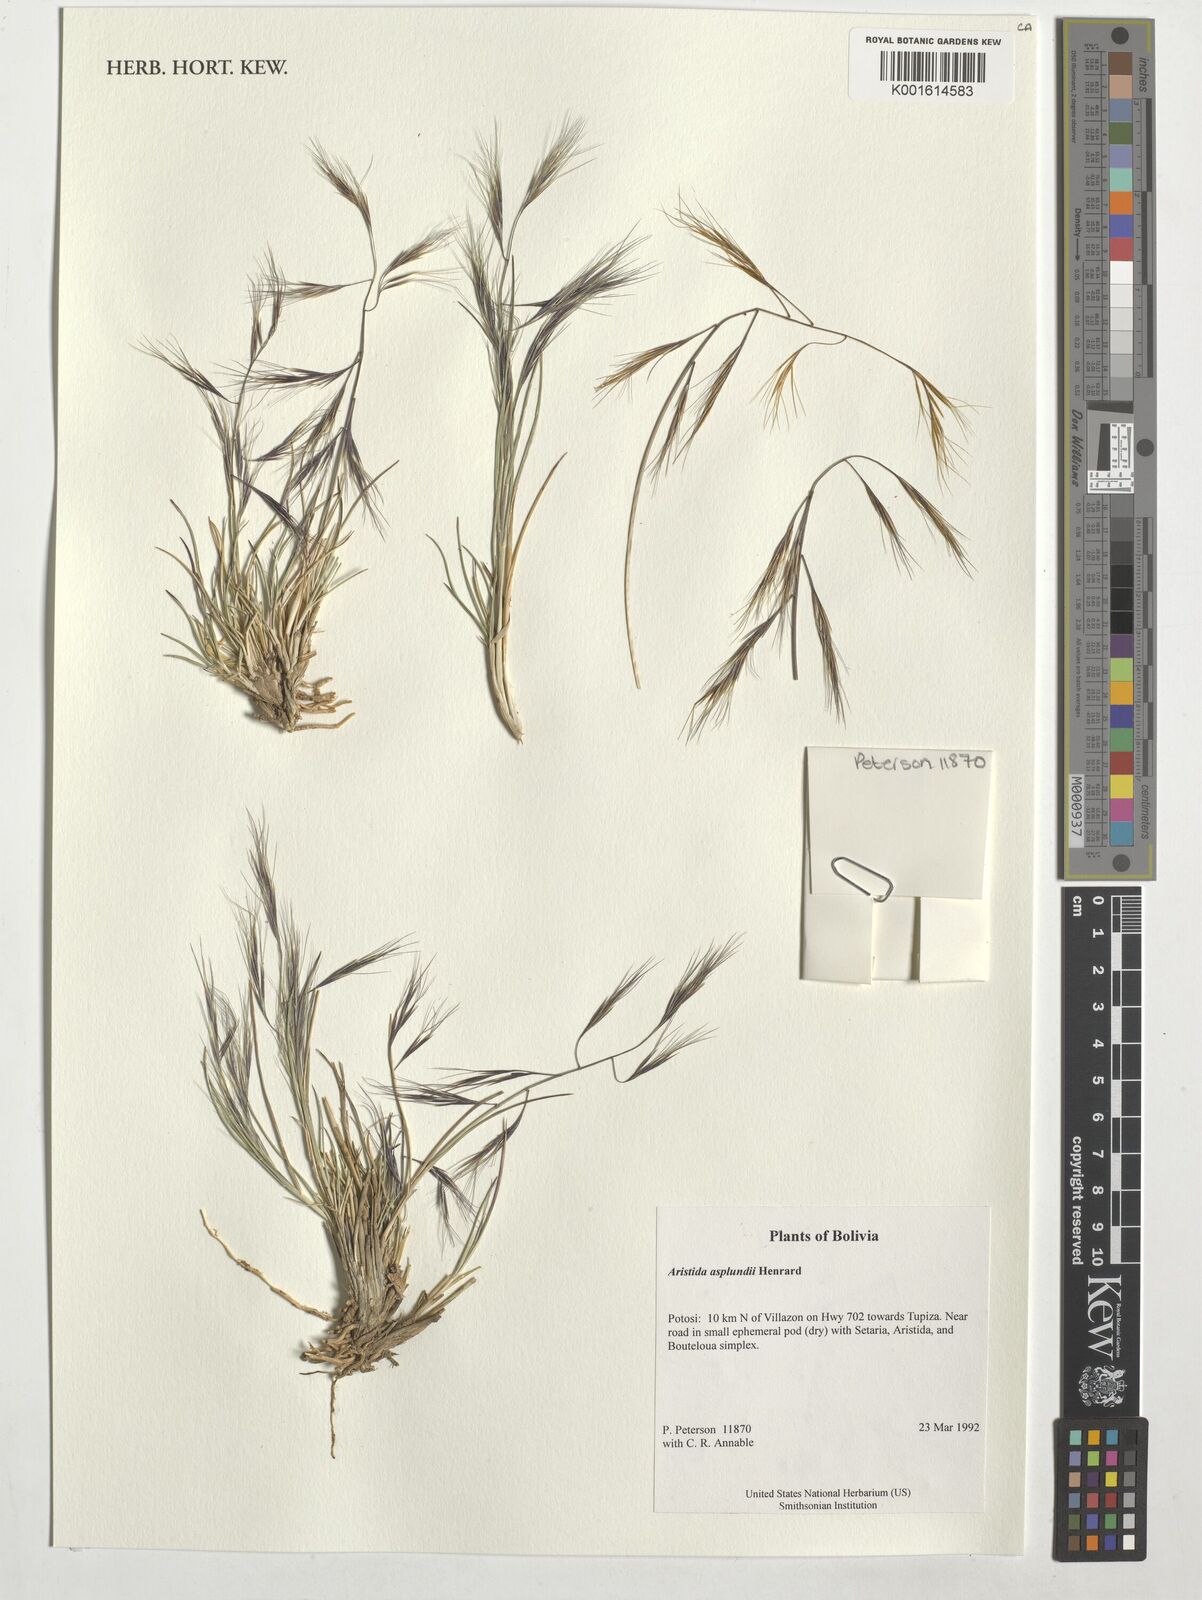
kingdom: Plantae
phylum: Tracheophyta
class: Liliopsida
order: Poales
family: Poaceae
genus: Aristida
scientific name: Aristida asplundii
